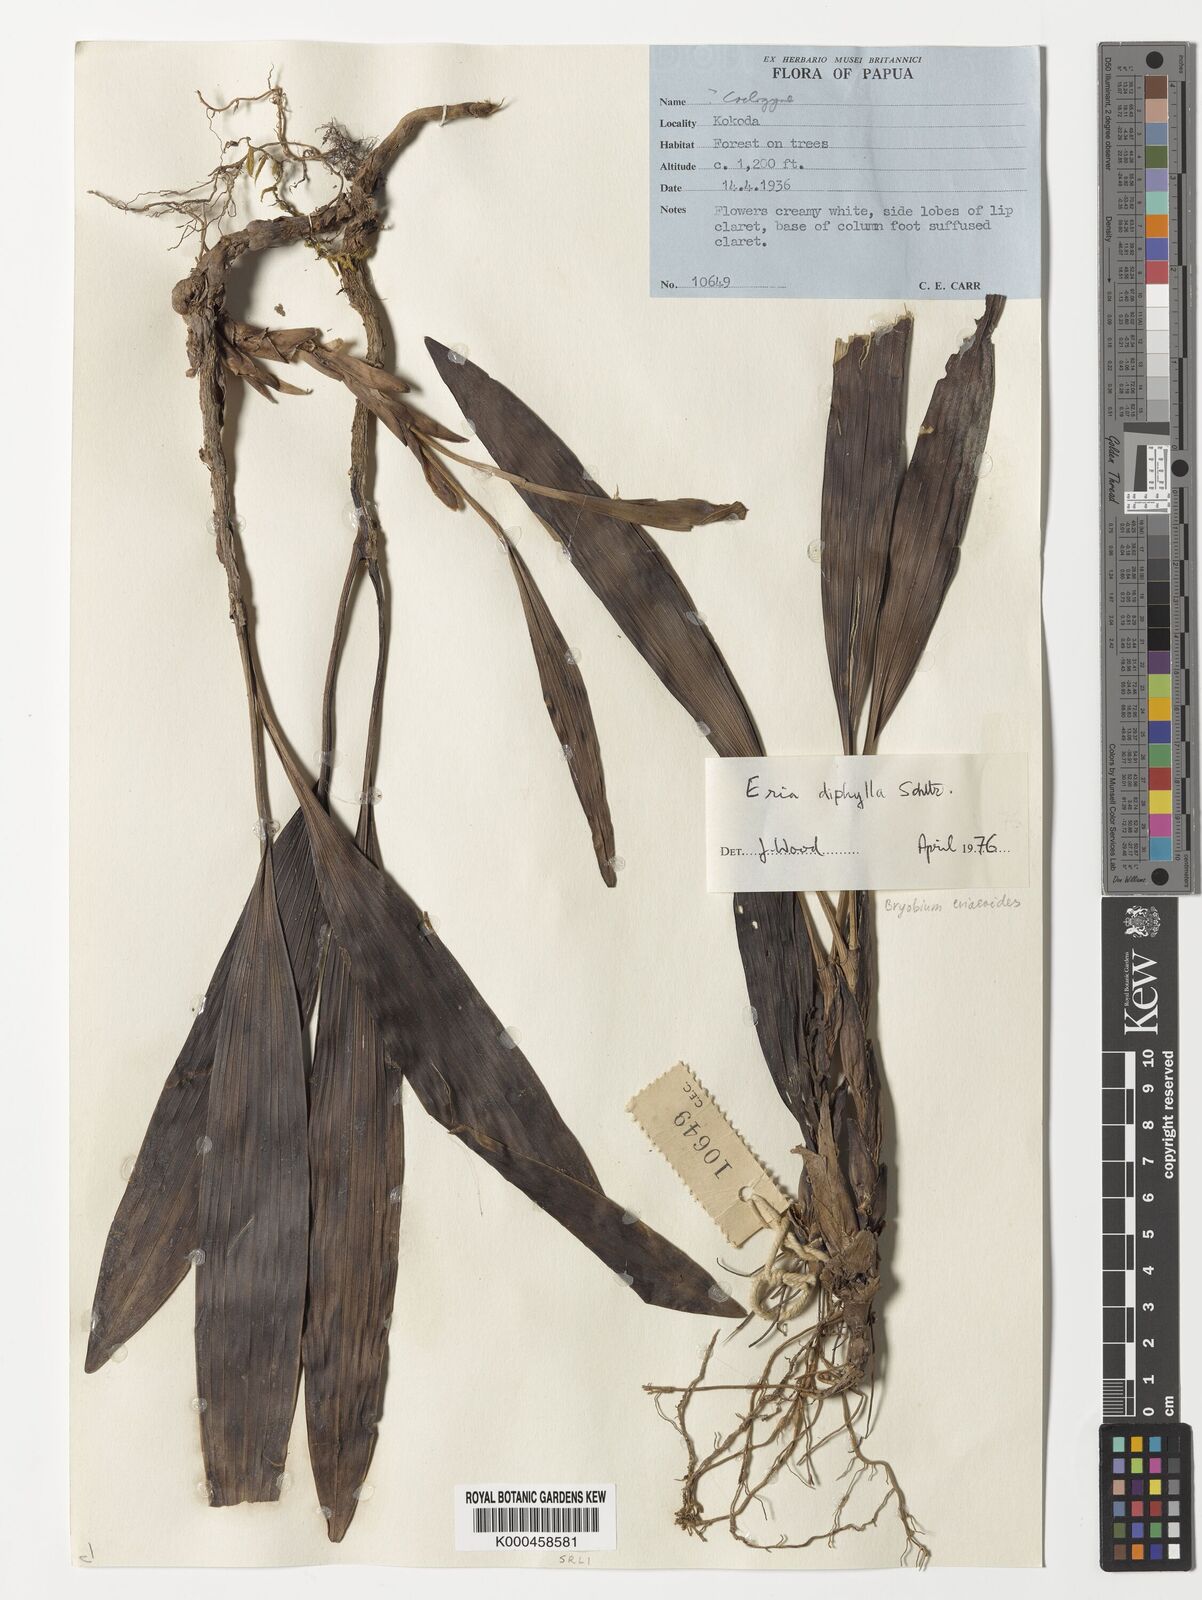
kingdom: Plantae
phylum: Tracheophyta
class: Liliopsida
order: Asparagales
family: Orchidaceae
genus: Bryobium
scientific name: Bryobium eriaeoides
